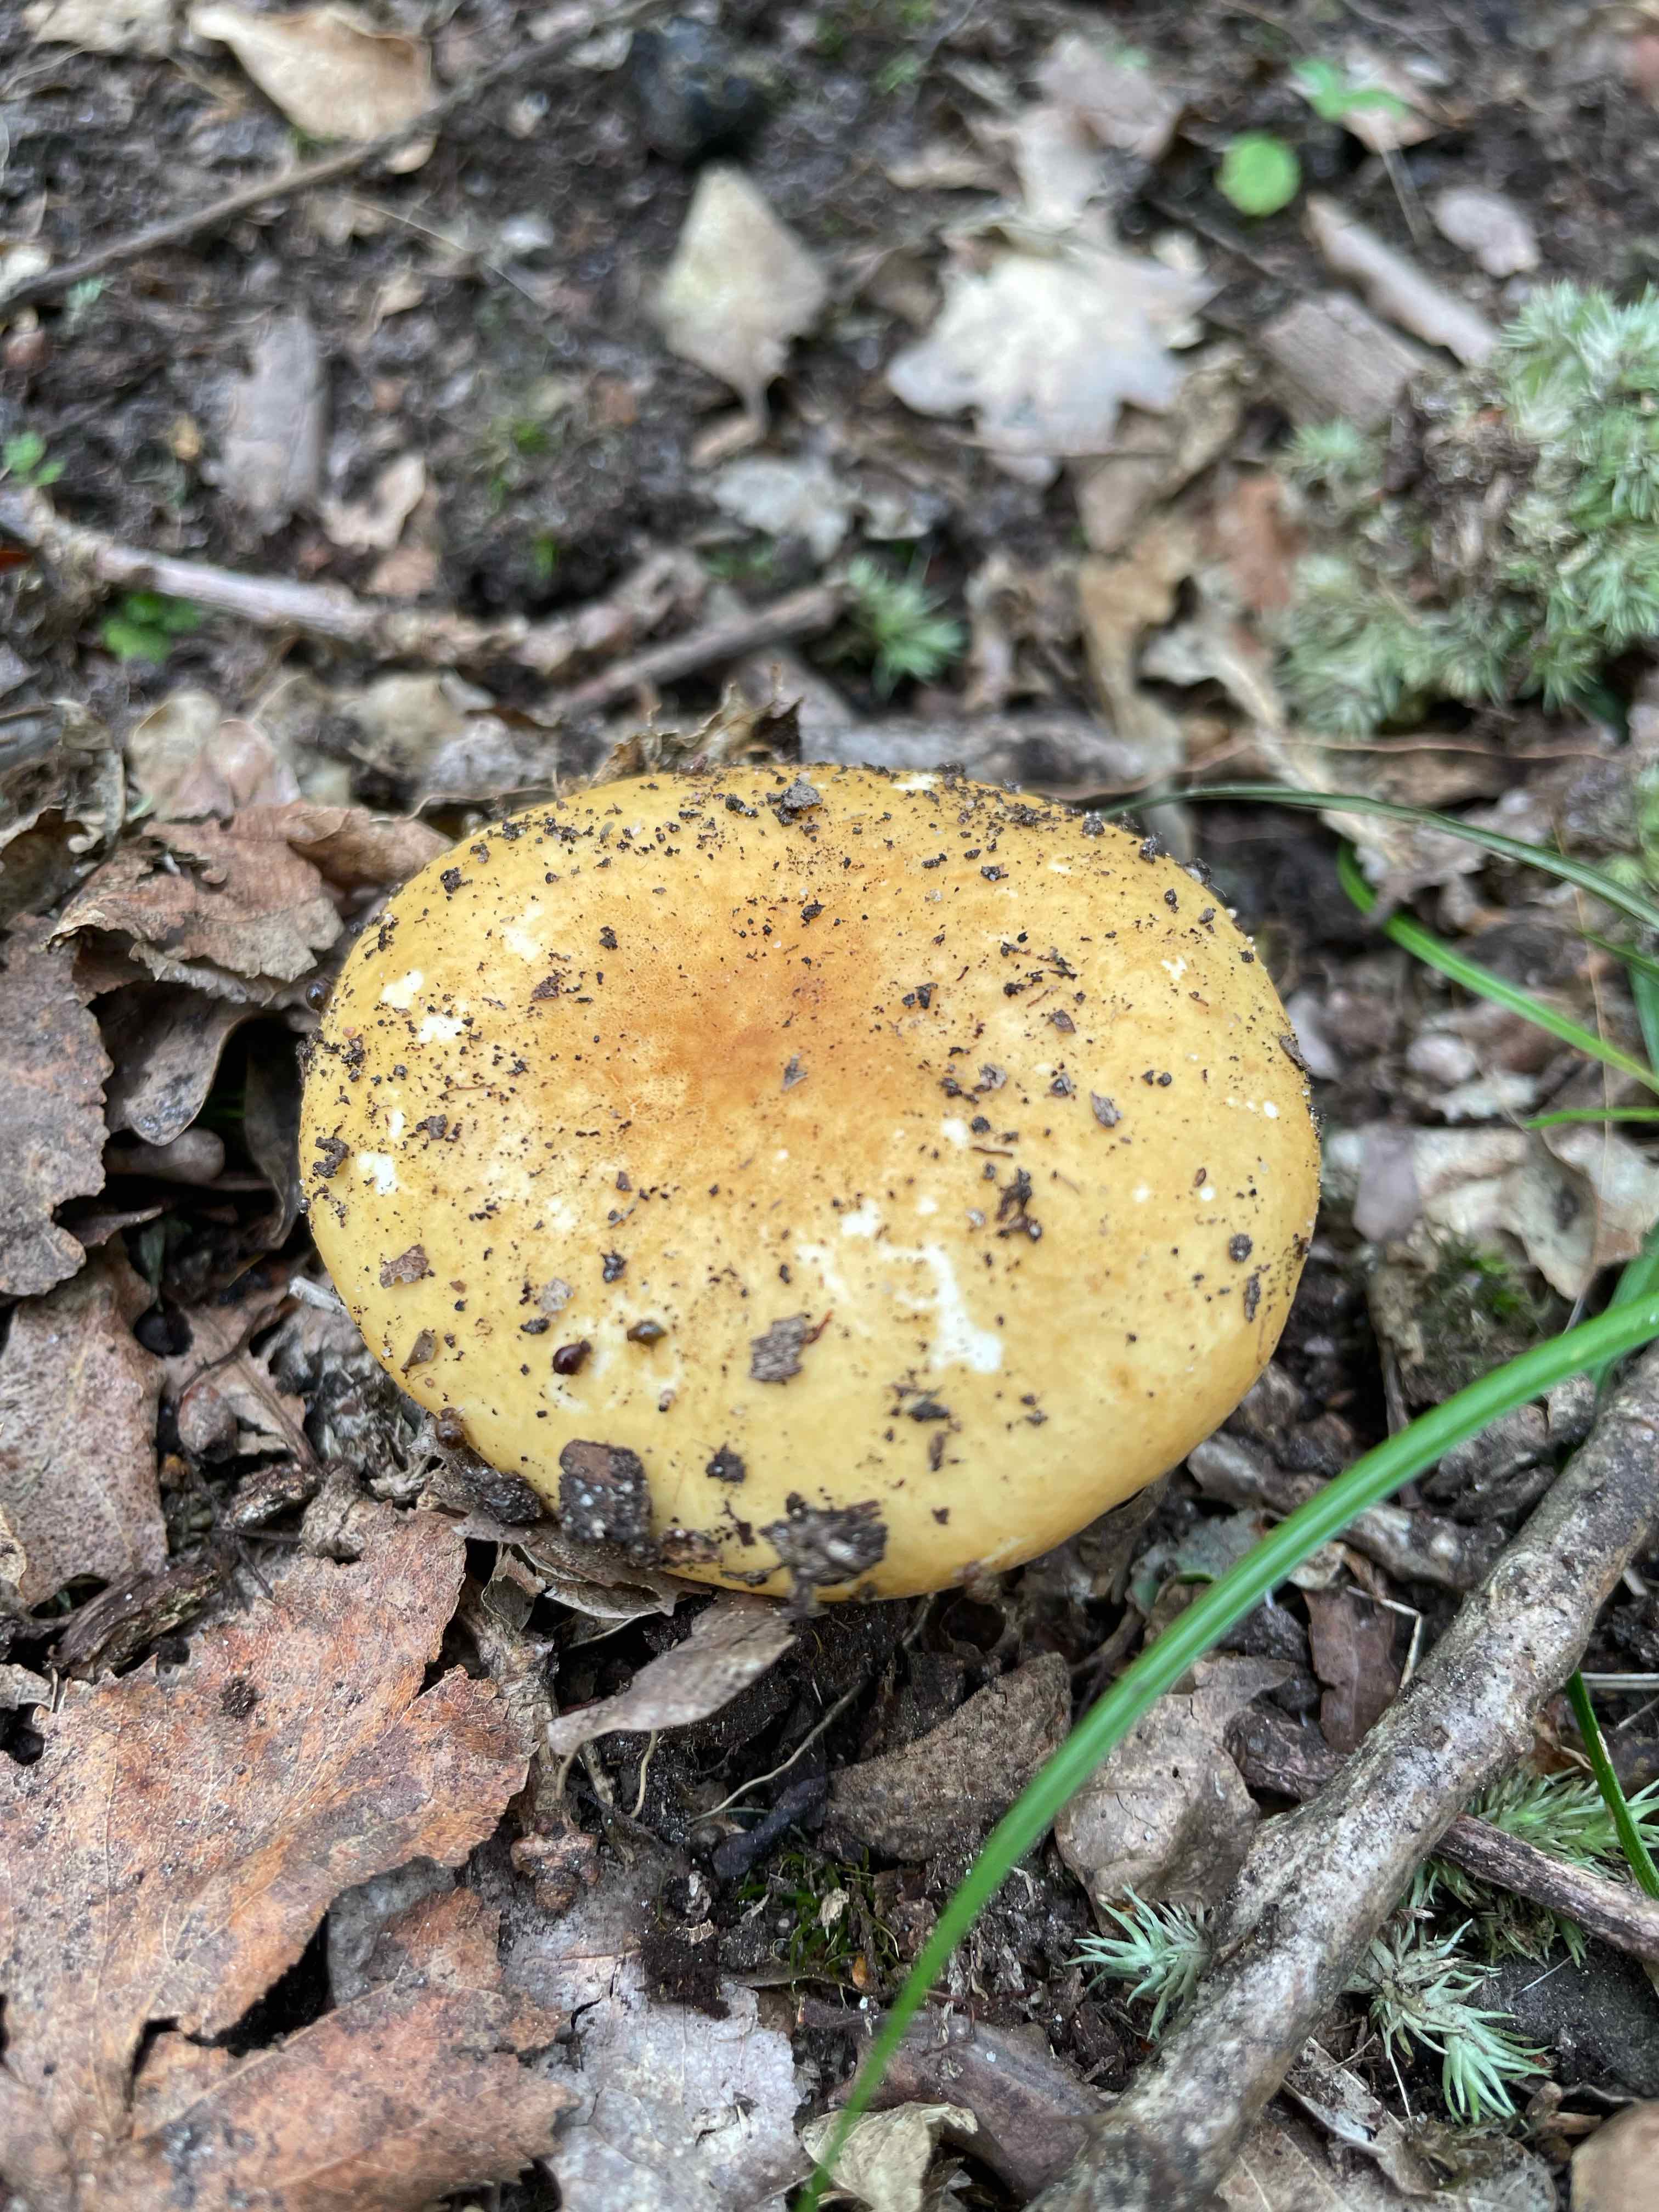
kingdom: Fungi
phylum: Basidiomycota
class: Agaricomycetes
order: Russulales
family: Russulaceae
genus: Russula
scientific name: Russula ochroleuca
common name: okkergul skørhat
